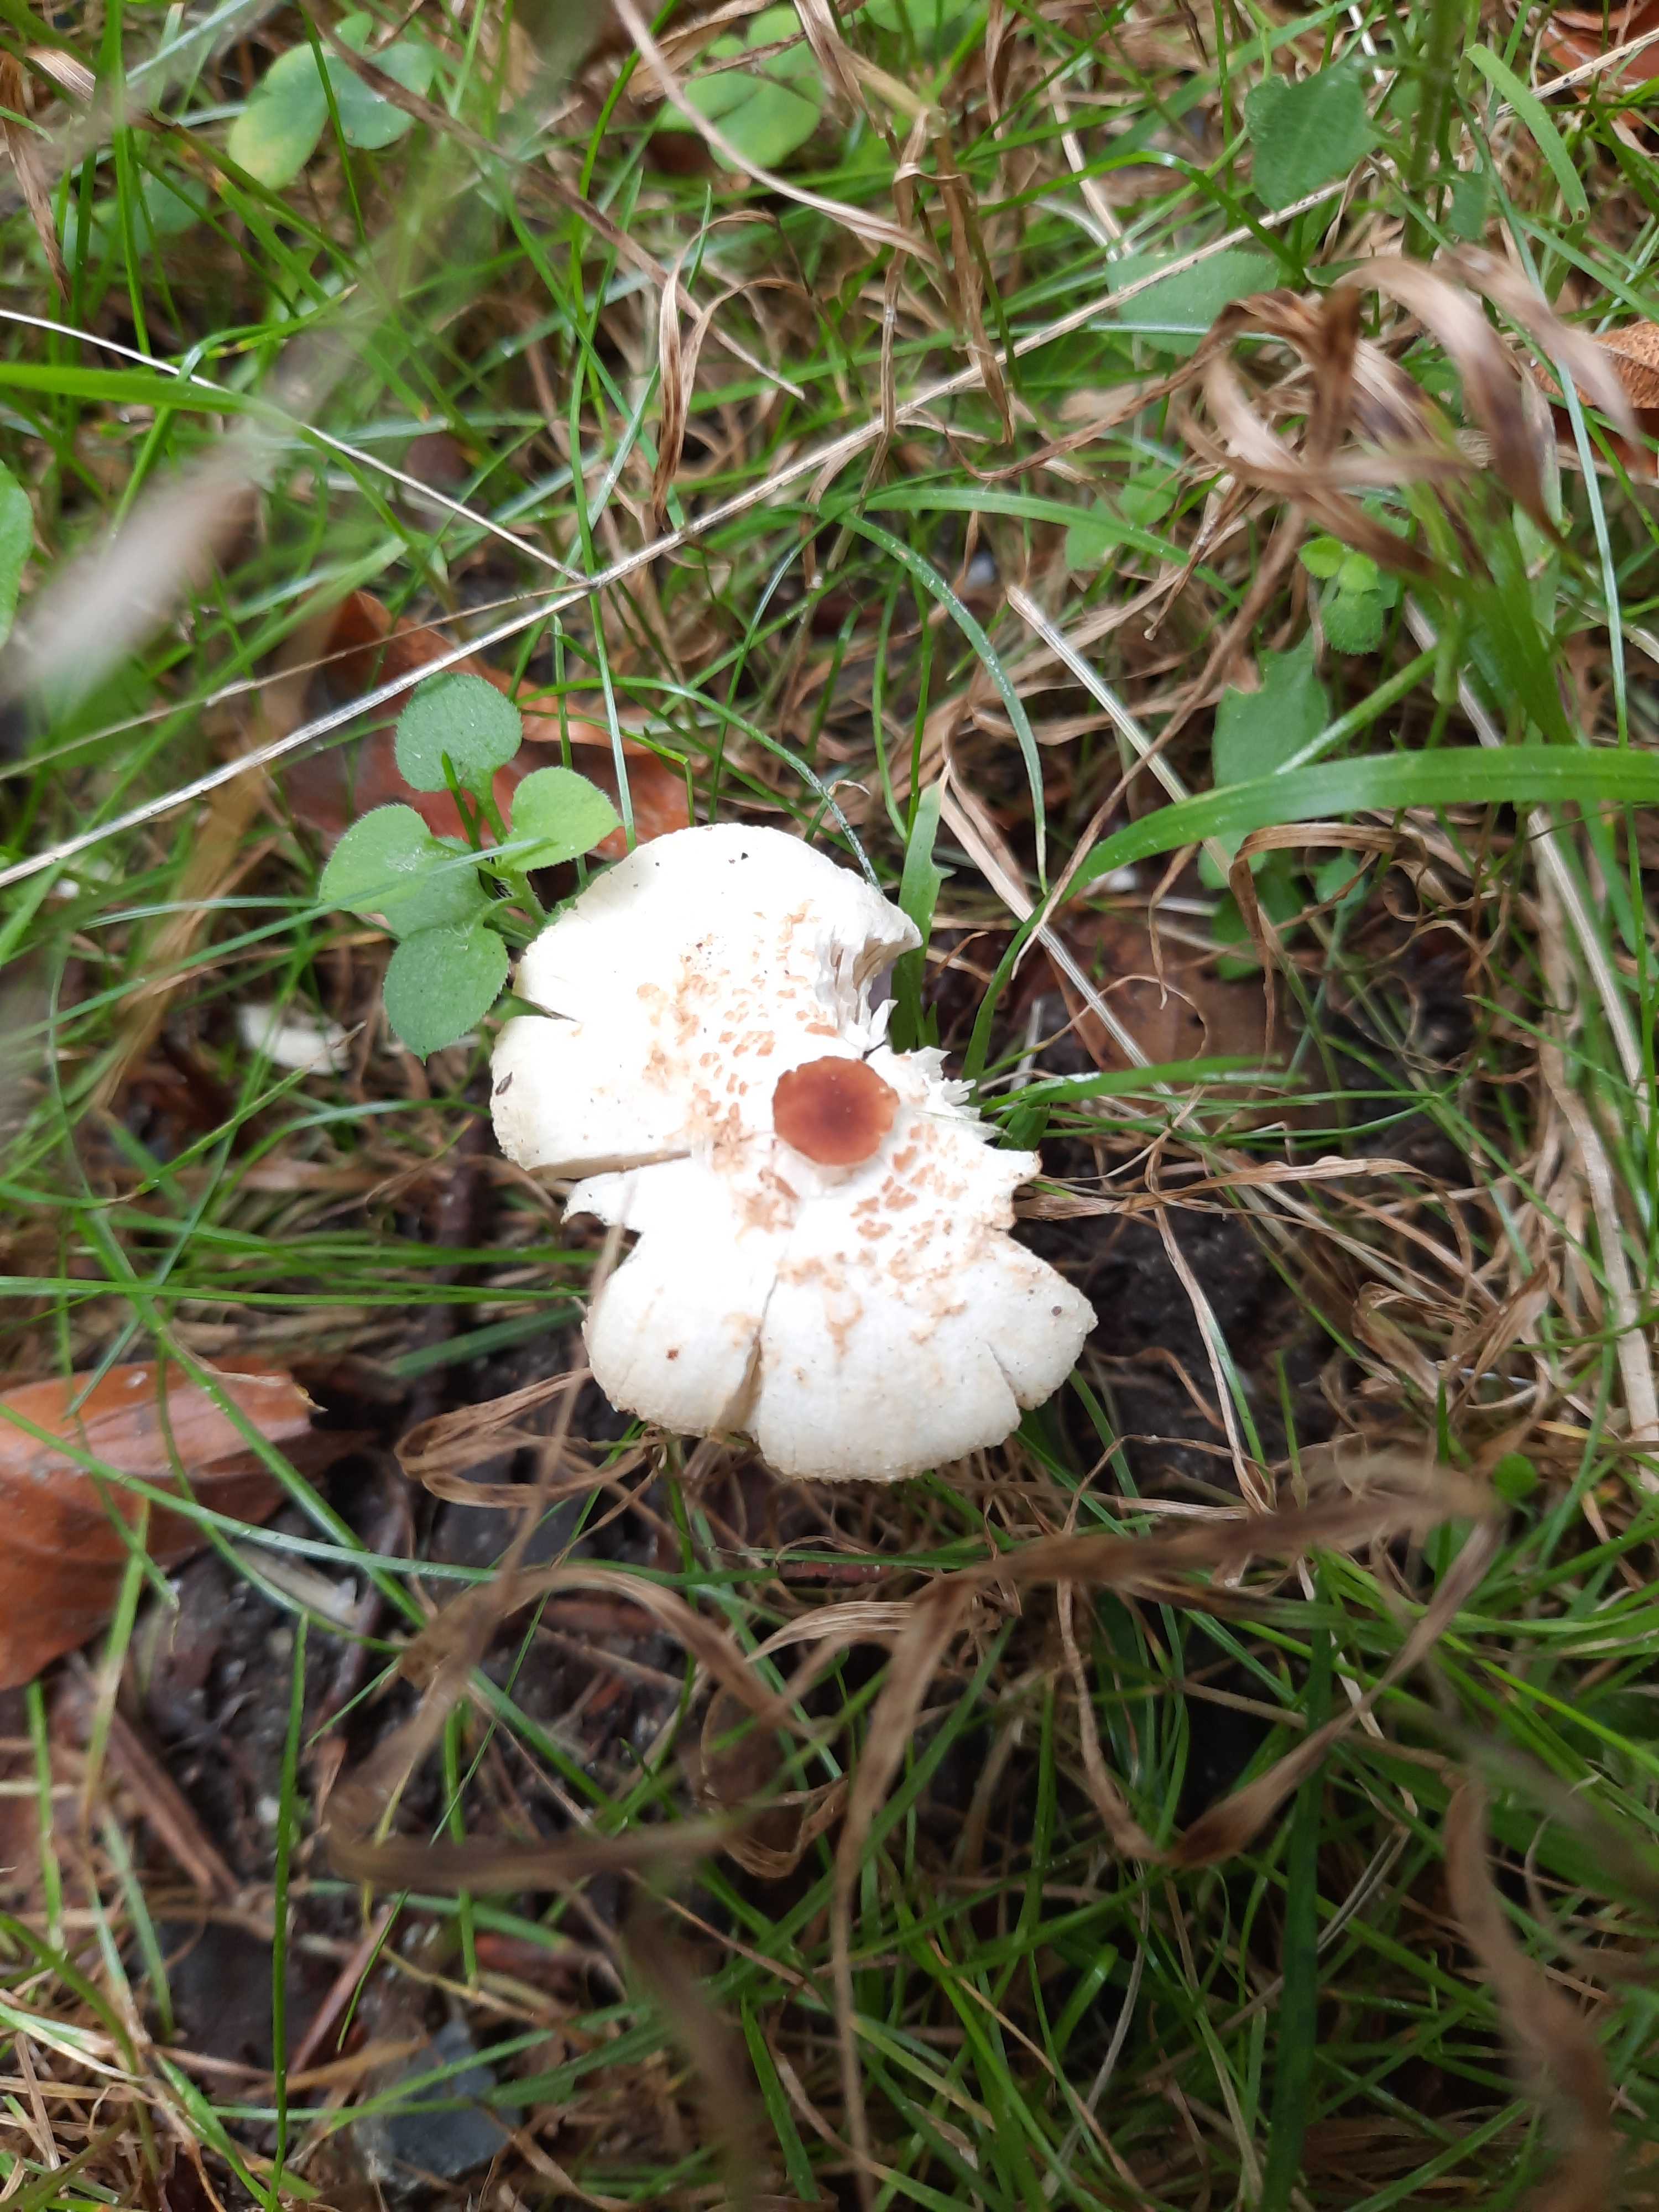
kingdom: Fungi
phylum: Basidiomycota
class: Agaricomycetes
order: Agaricales
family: Agaricaceae
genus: Lepiota
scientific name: Lepiota cristata
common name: stinkende parasolhat
